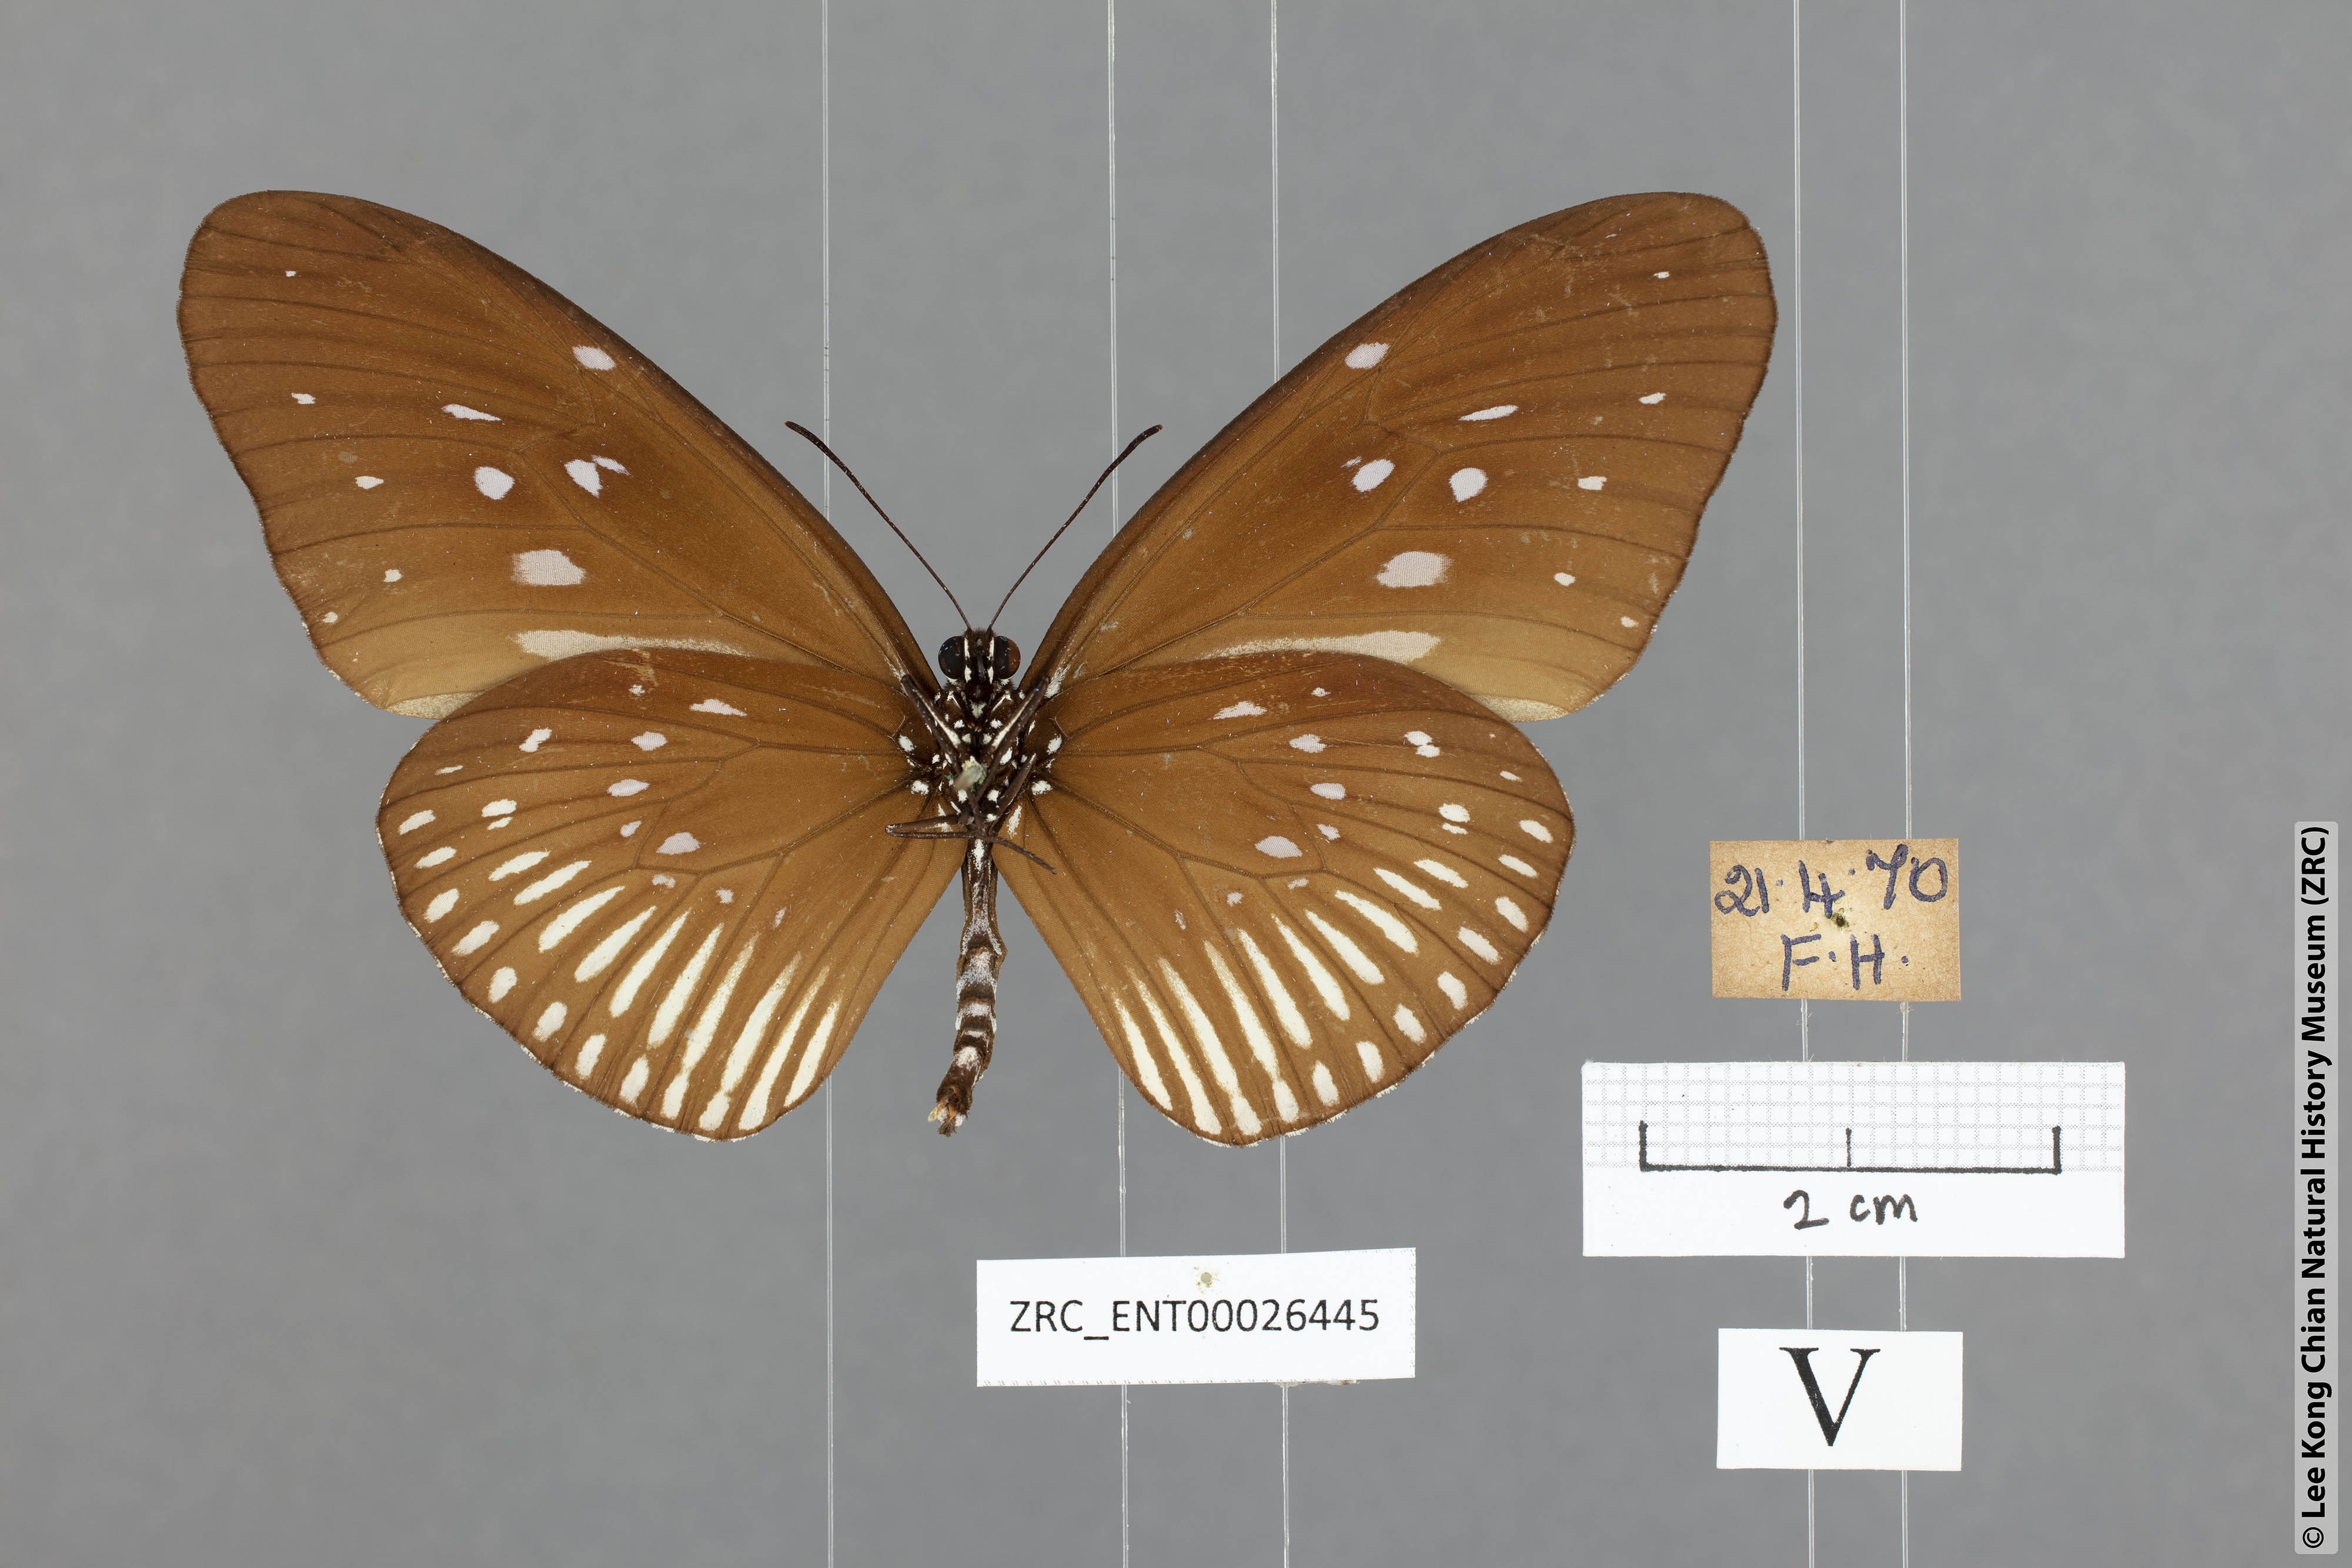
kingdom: Animalia
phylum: Arthropoda
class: Insecta
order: Lepidoptera
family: Nymphalidae
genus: Euploea
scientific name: Euploea eyndhovii
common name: Striped black crow butterfly
